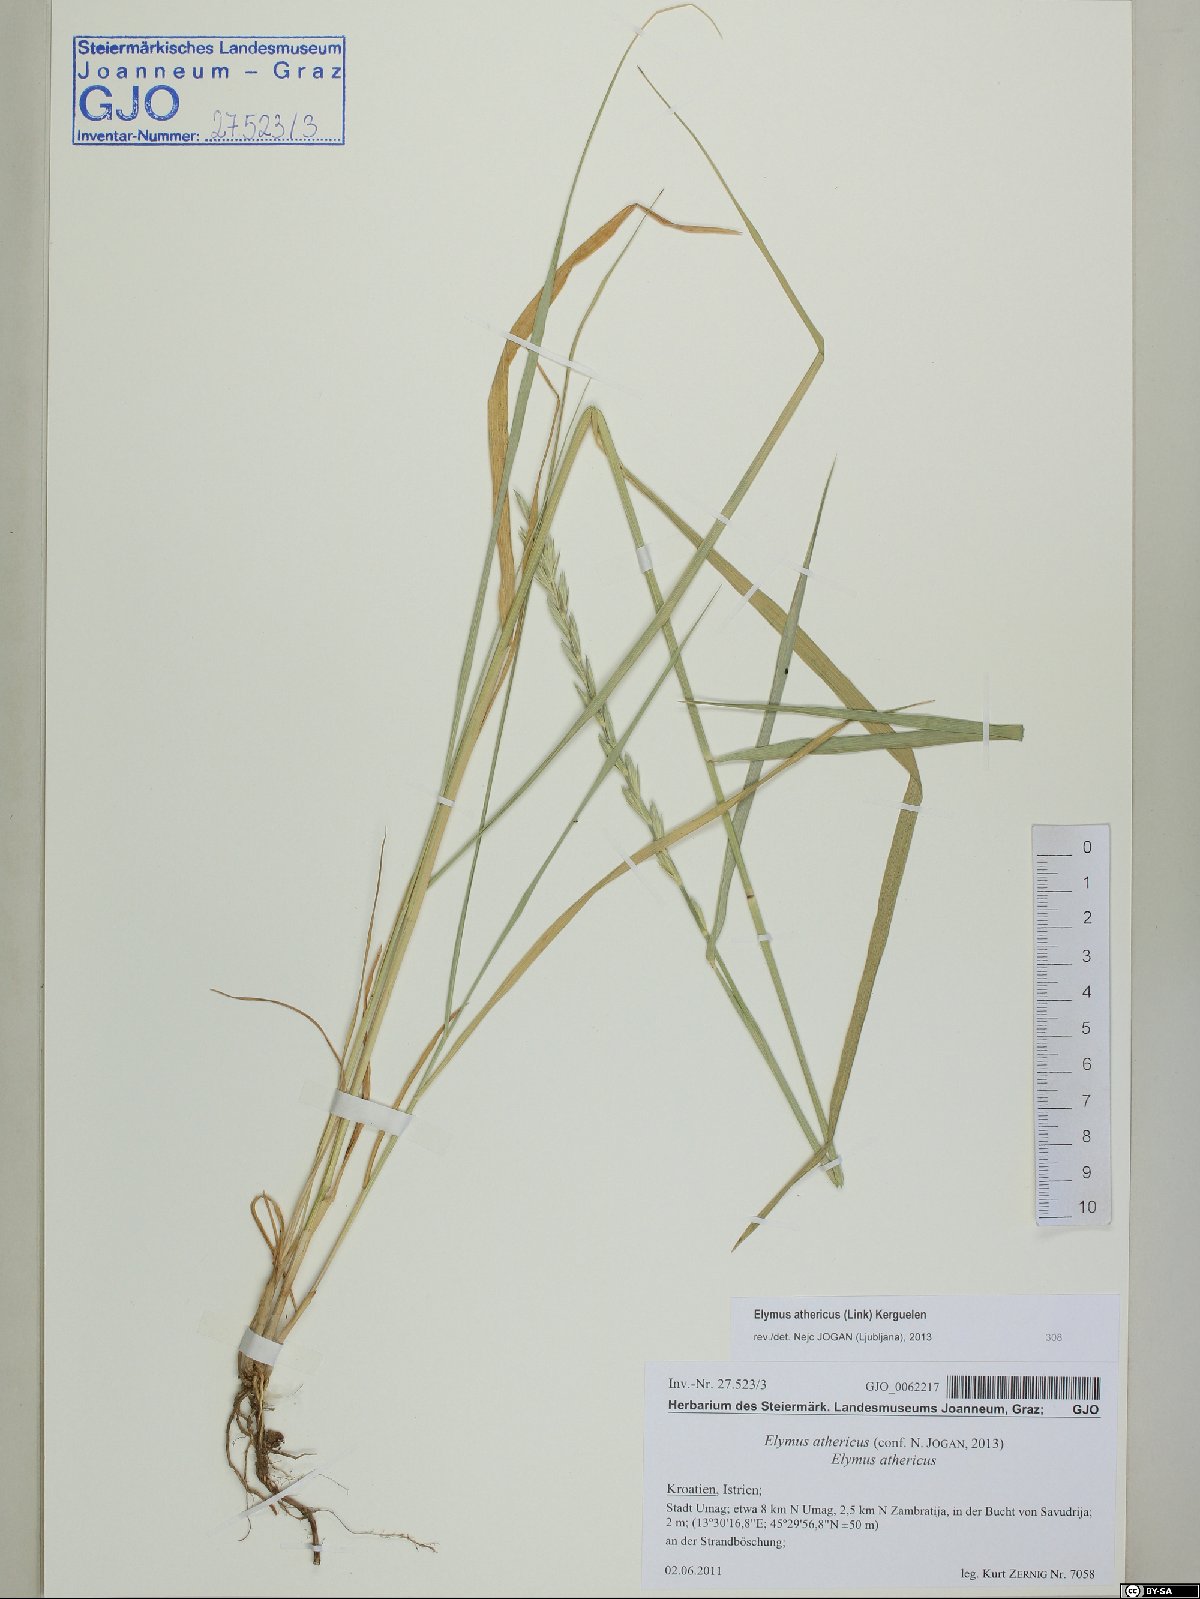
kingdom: Plantae
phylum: Tracheophyta
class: Liliopsida
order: Poales
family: Poaceae
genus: Elymus
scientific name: Elymus athericus
